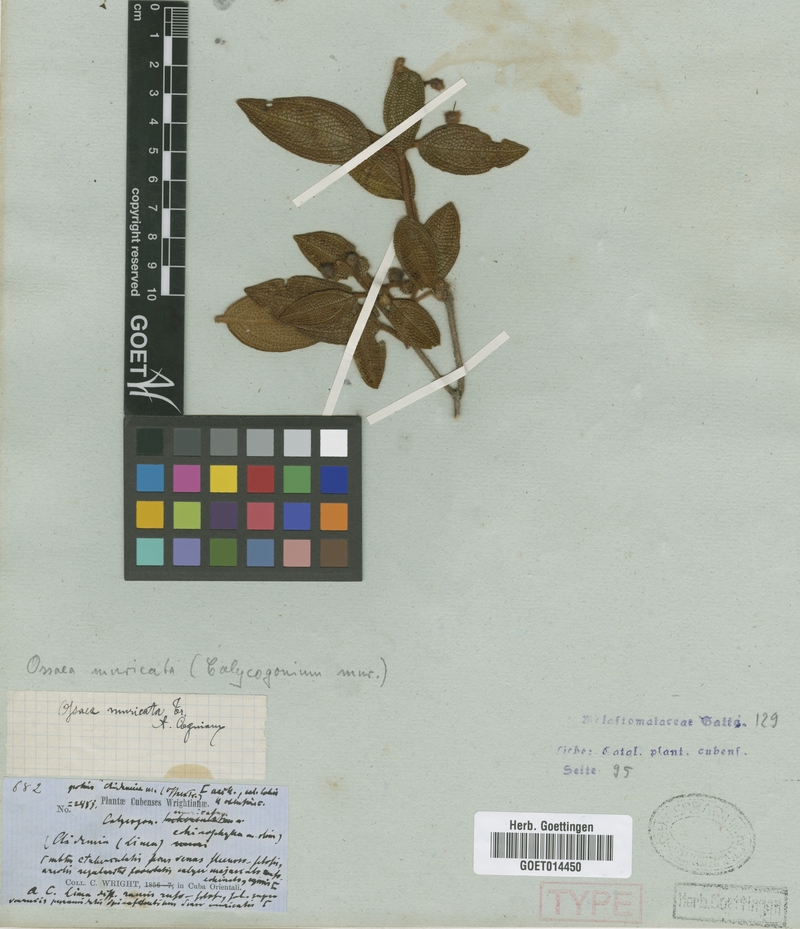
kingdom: Plantae
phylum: Tracheophyta
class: Magnoliopsida
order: Myrtales
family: Melastomataceae
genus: Miconia
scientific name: Miconia argentimuricata
